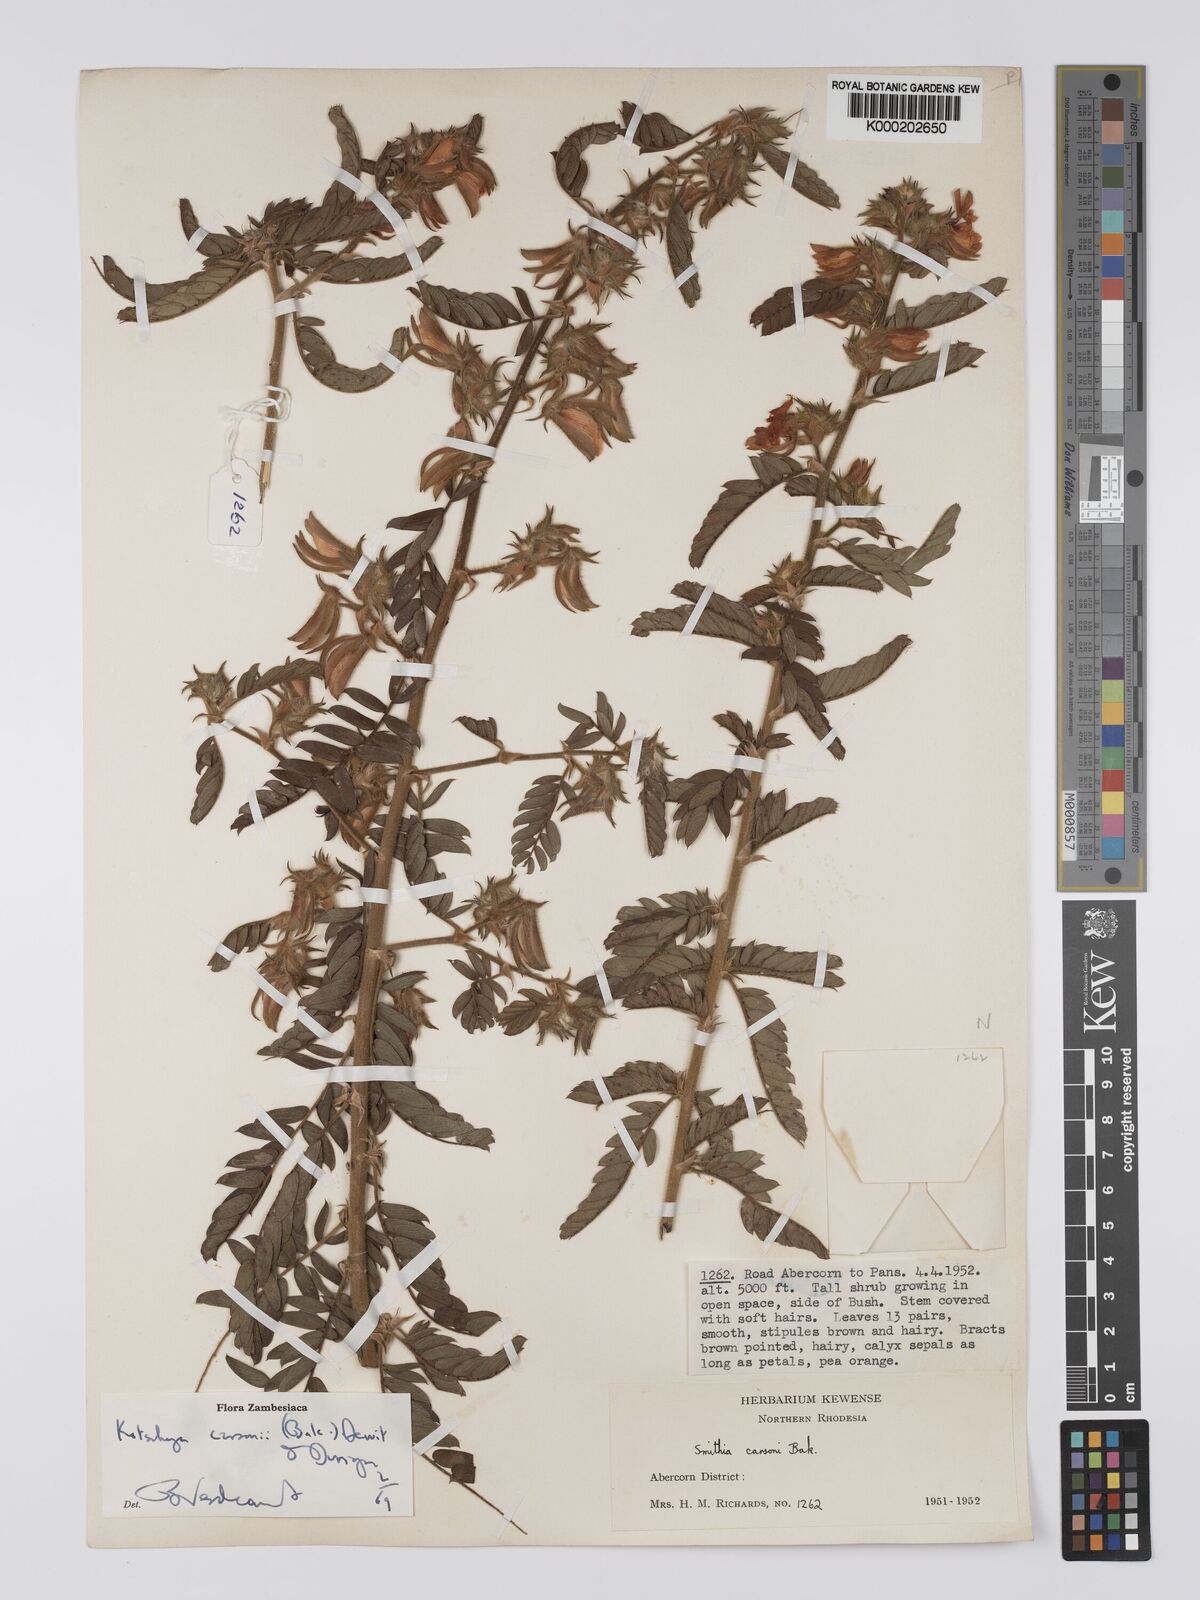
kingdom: Plantae
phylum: Tracheophyta
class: Magnoliopsida
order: Fabales
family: Fabaceae
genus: Kotschya
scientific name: Kotschya carsonii
